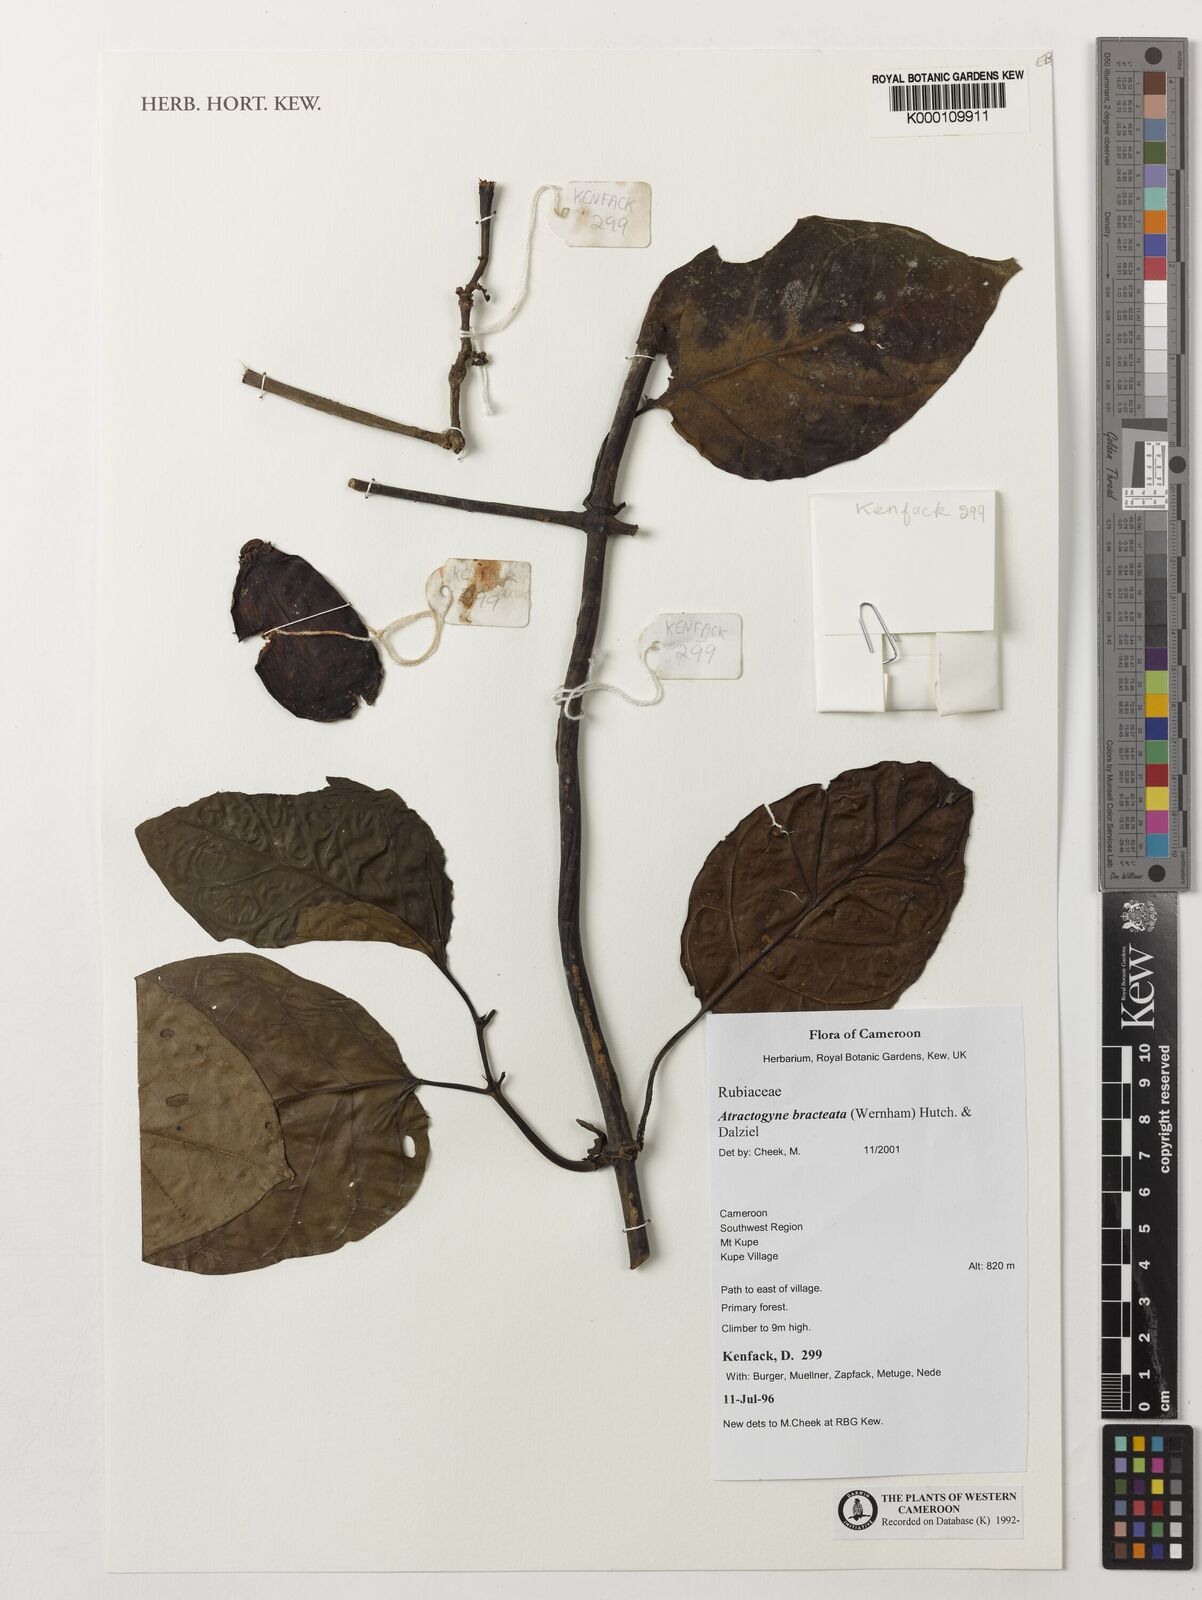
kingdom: Plantae
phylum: Tracheophyta
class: Magnoliopsida
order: Gentianales
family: Rubiaceae
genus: Atractogyne
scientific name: Atractogyne bracteata
